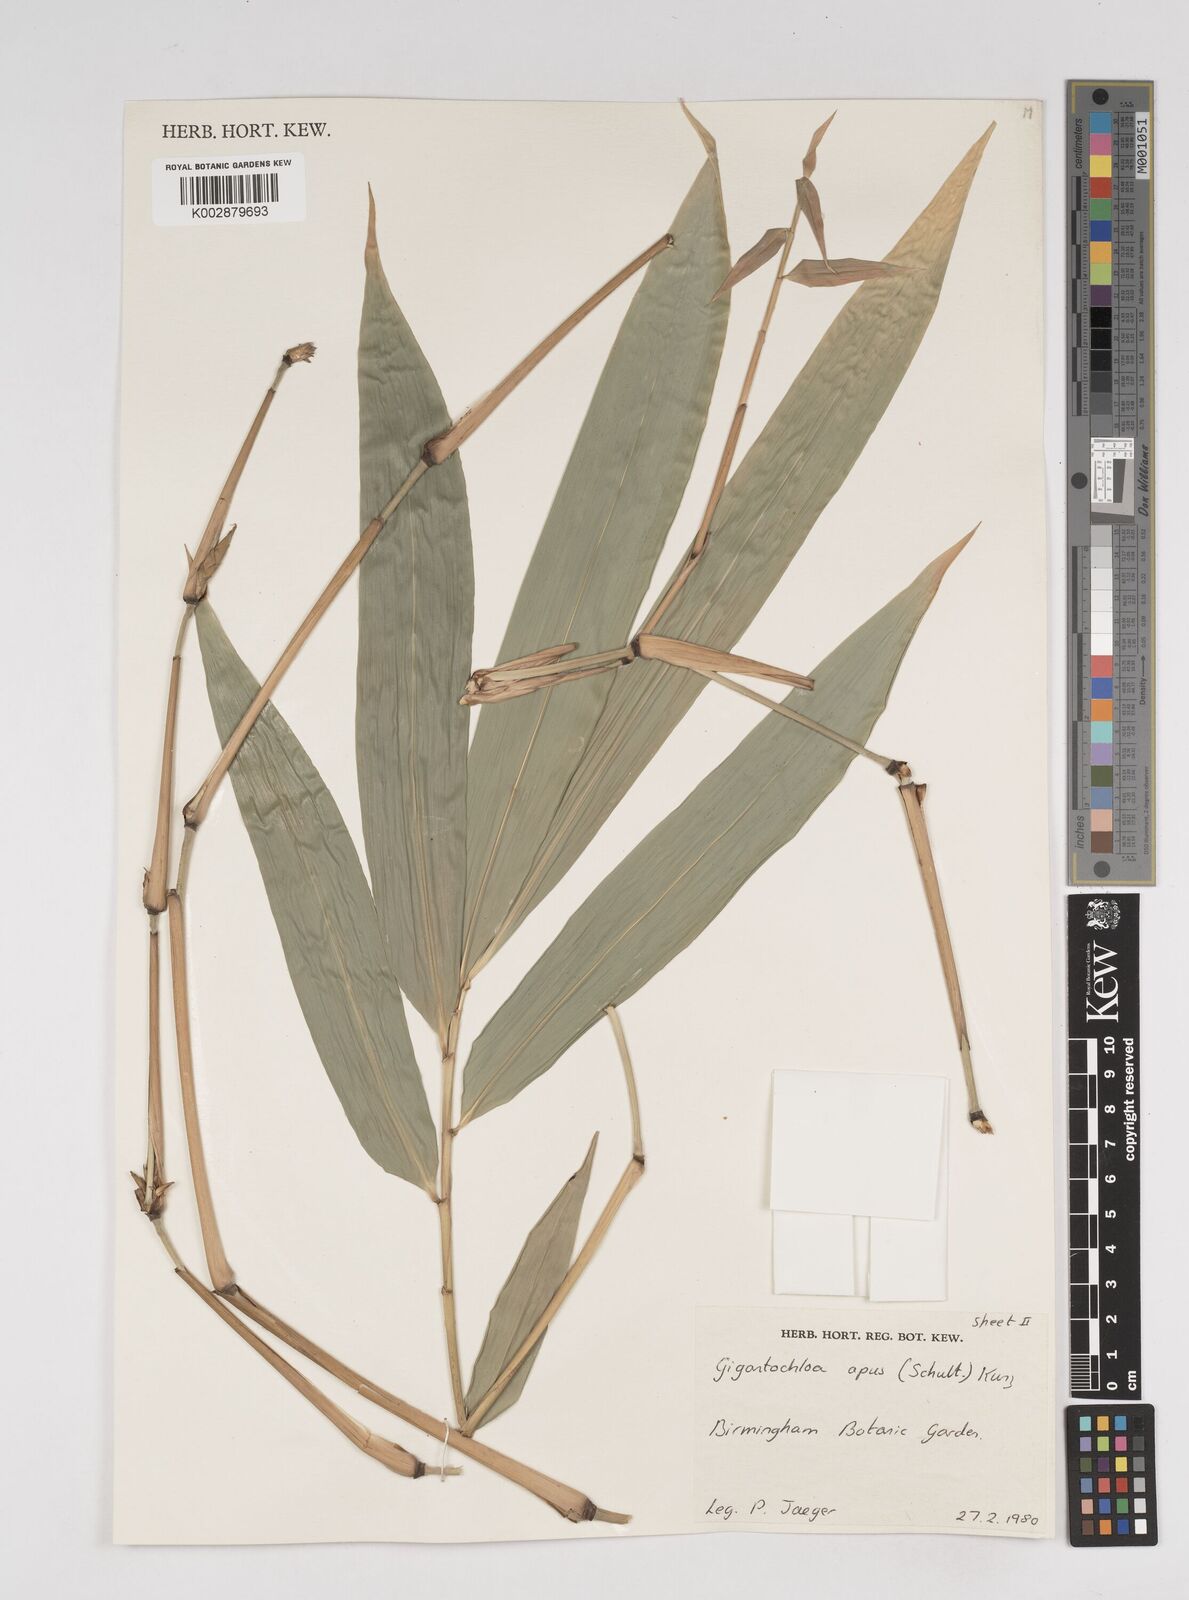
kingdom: Plantae
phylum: Tracheophyta
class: Liliopsida
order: Poales
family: Poaceae
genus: Gigantochloa
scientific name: Gigantochloa apus
